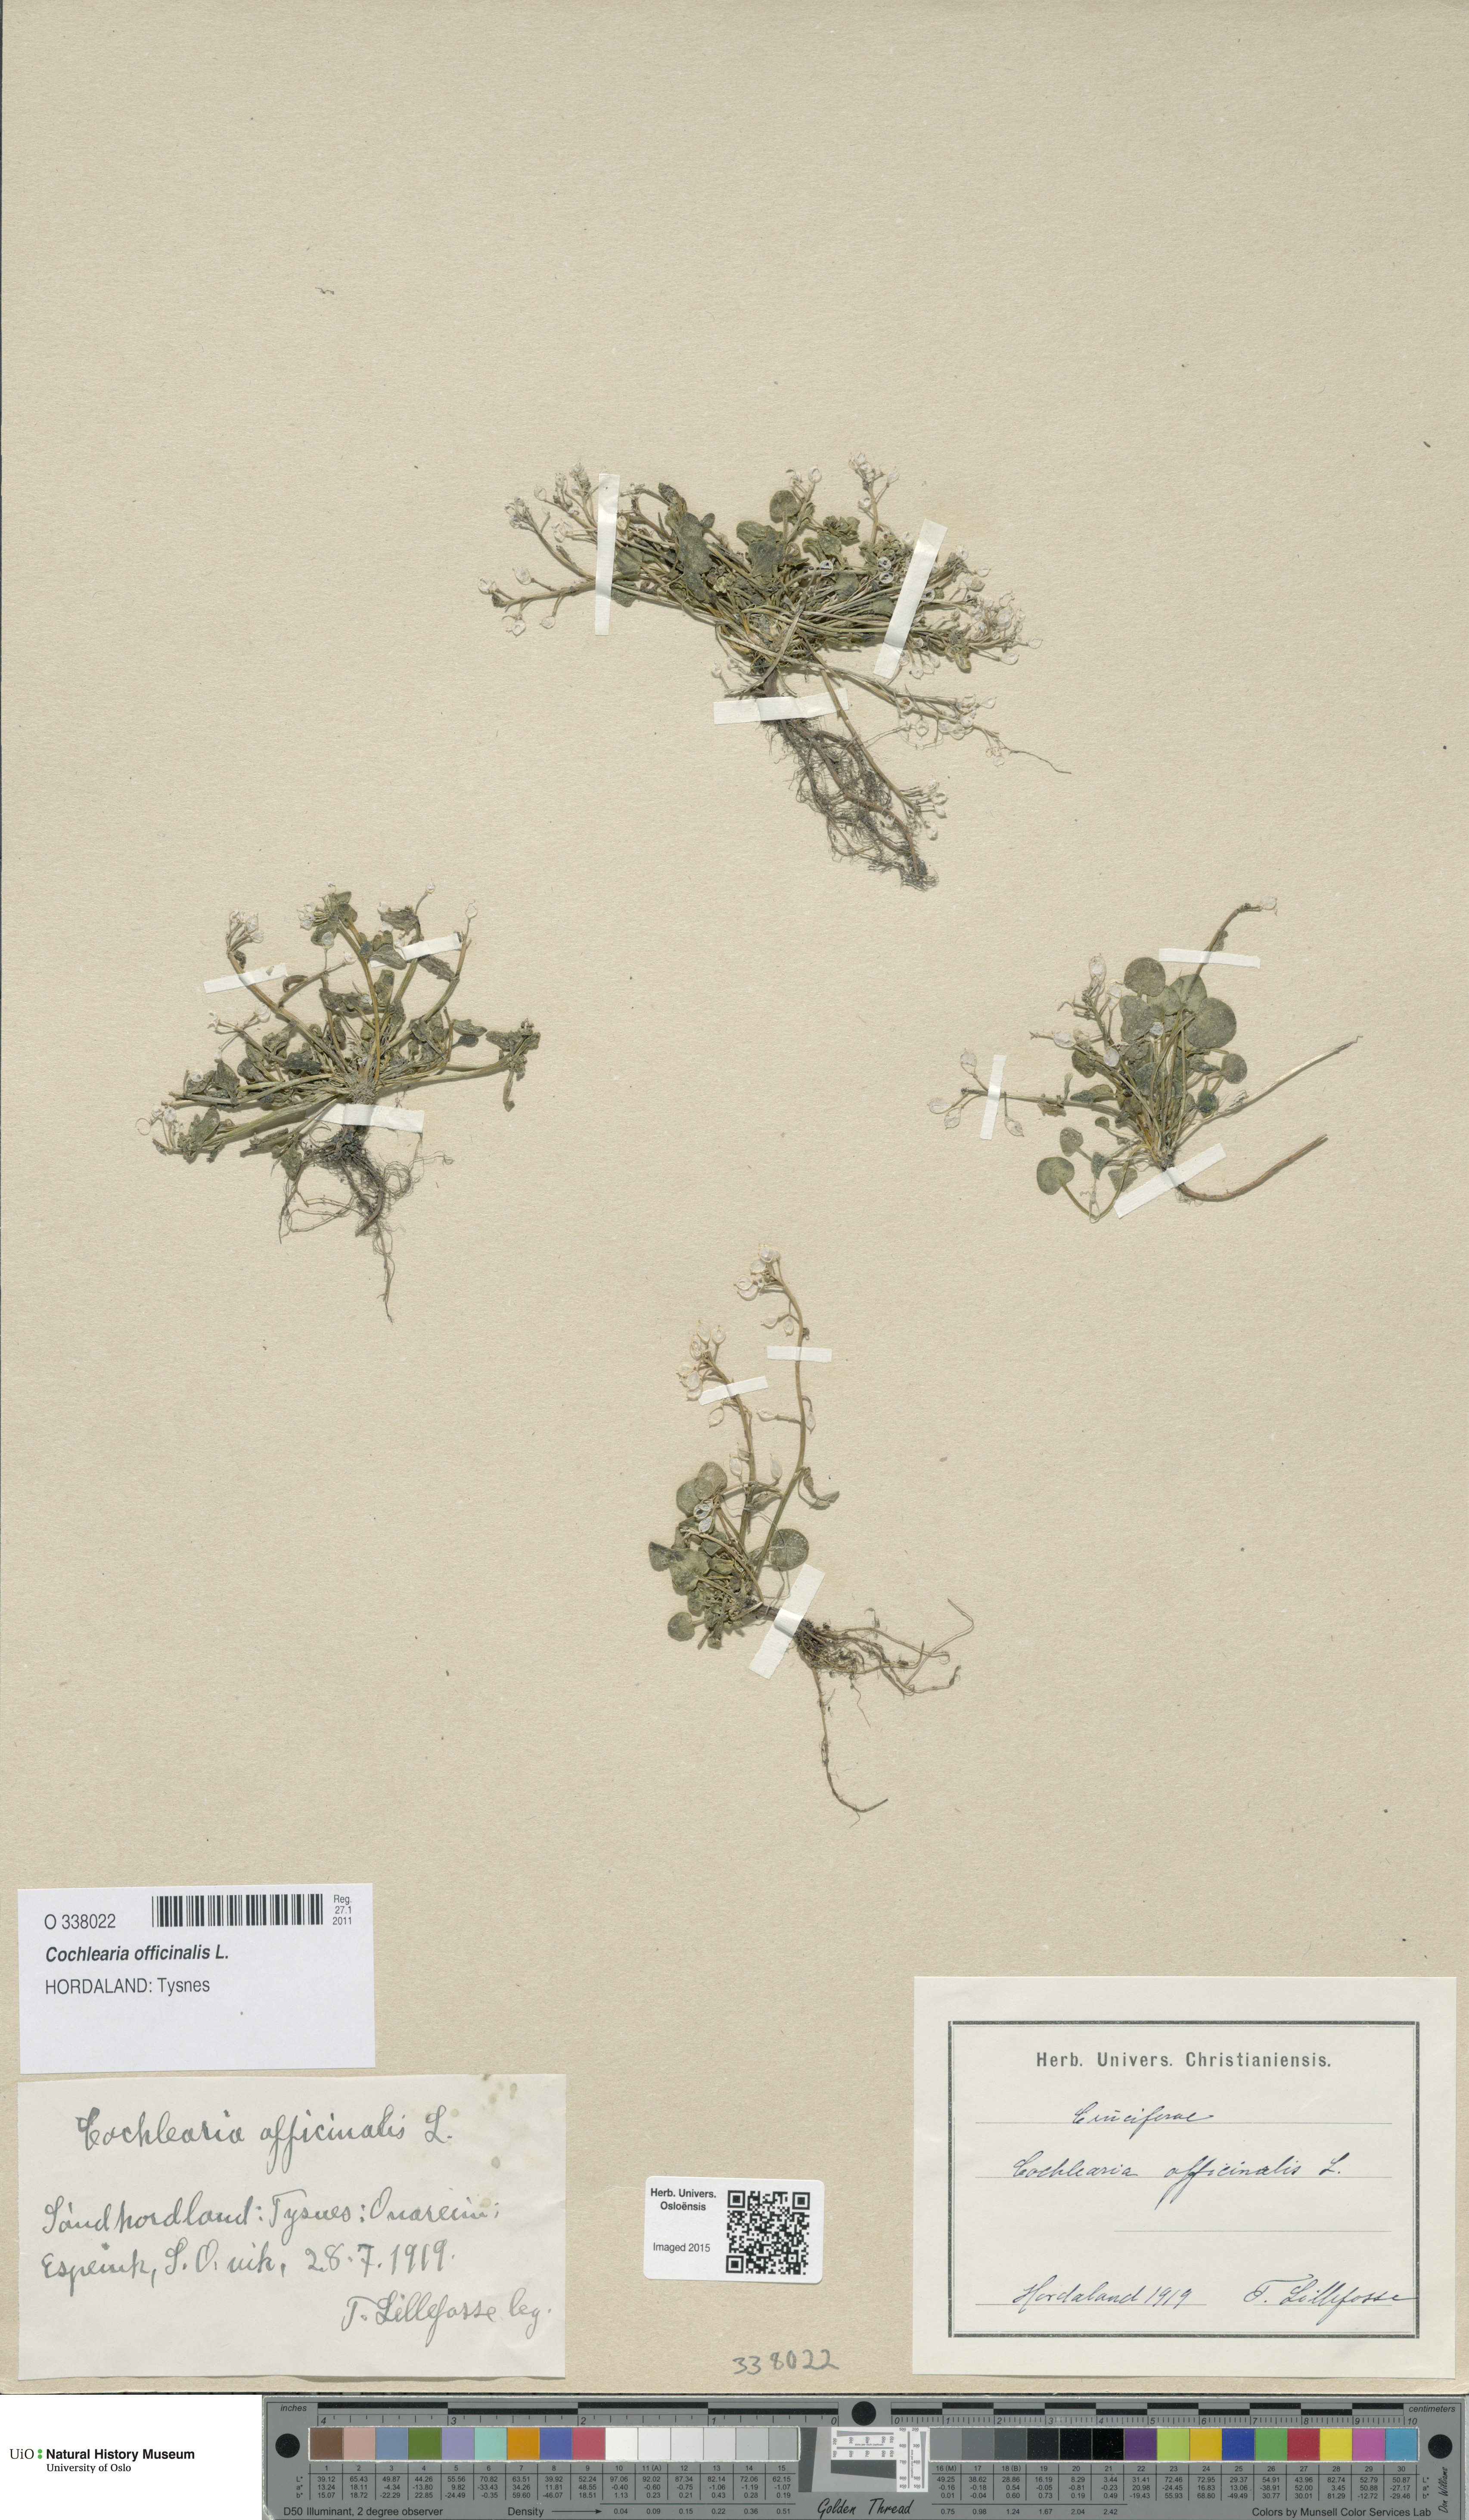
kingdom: Plantae
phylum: Tracheophyta
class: Magnoliopsida
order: Brassicales
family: Brassicaceae
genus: Cochlearia
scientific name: Cochlearia officinalis
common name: Scurvy-grass
